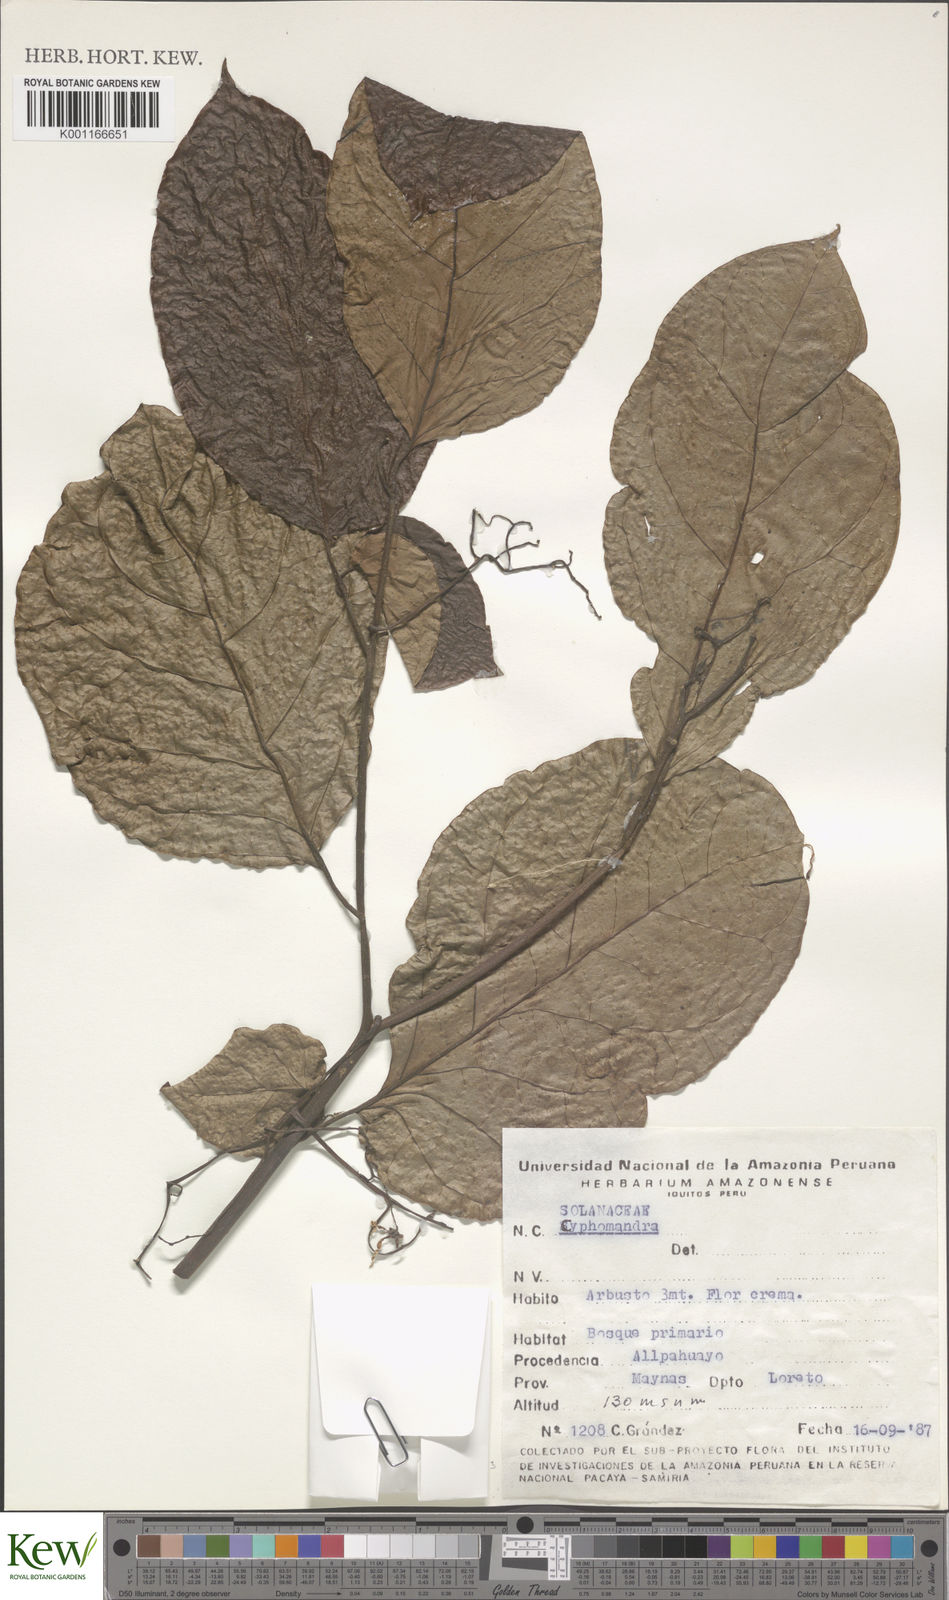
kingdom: Plantae
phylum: Tracheophyta
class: Magnoliopsida
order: Solanales
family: Solanaceae
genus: Solanum
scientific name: Solanum
